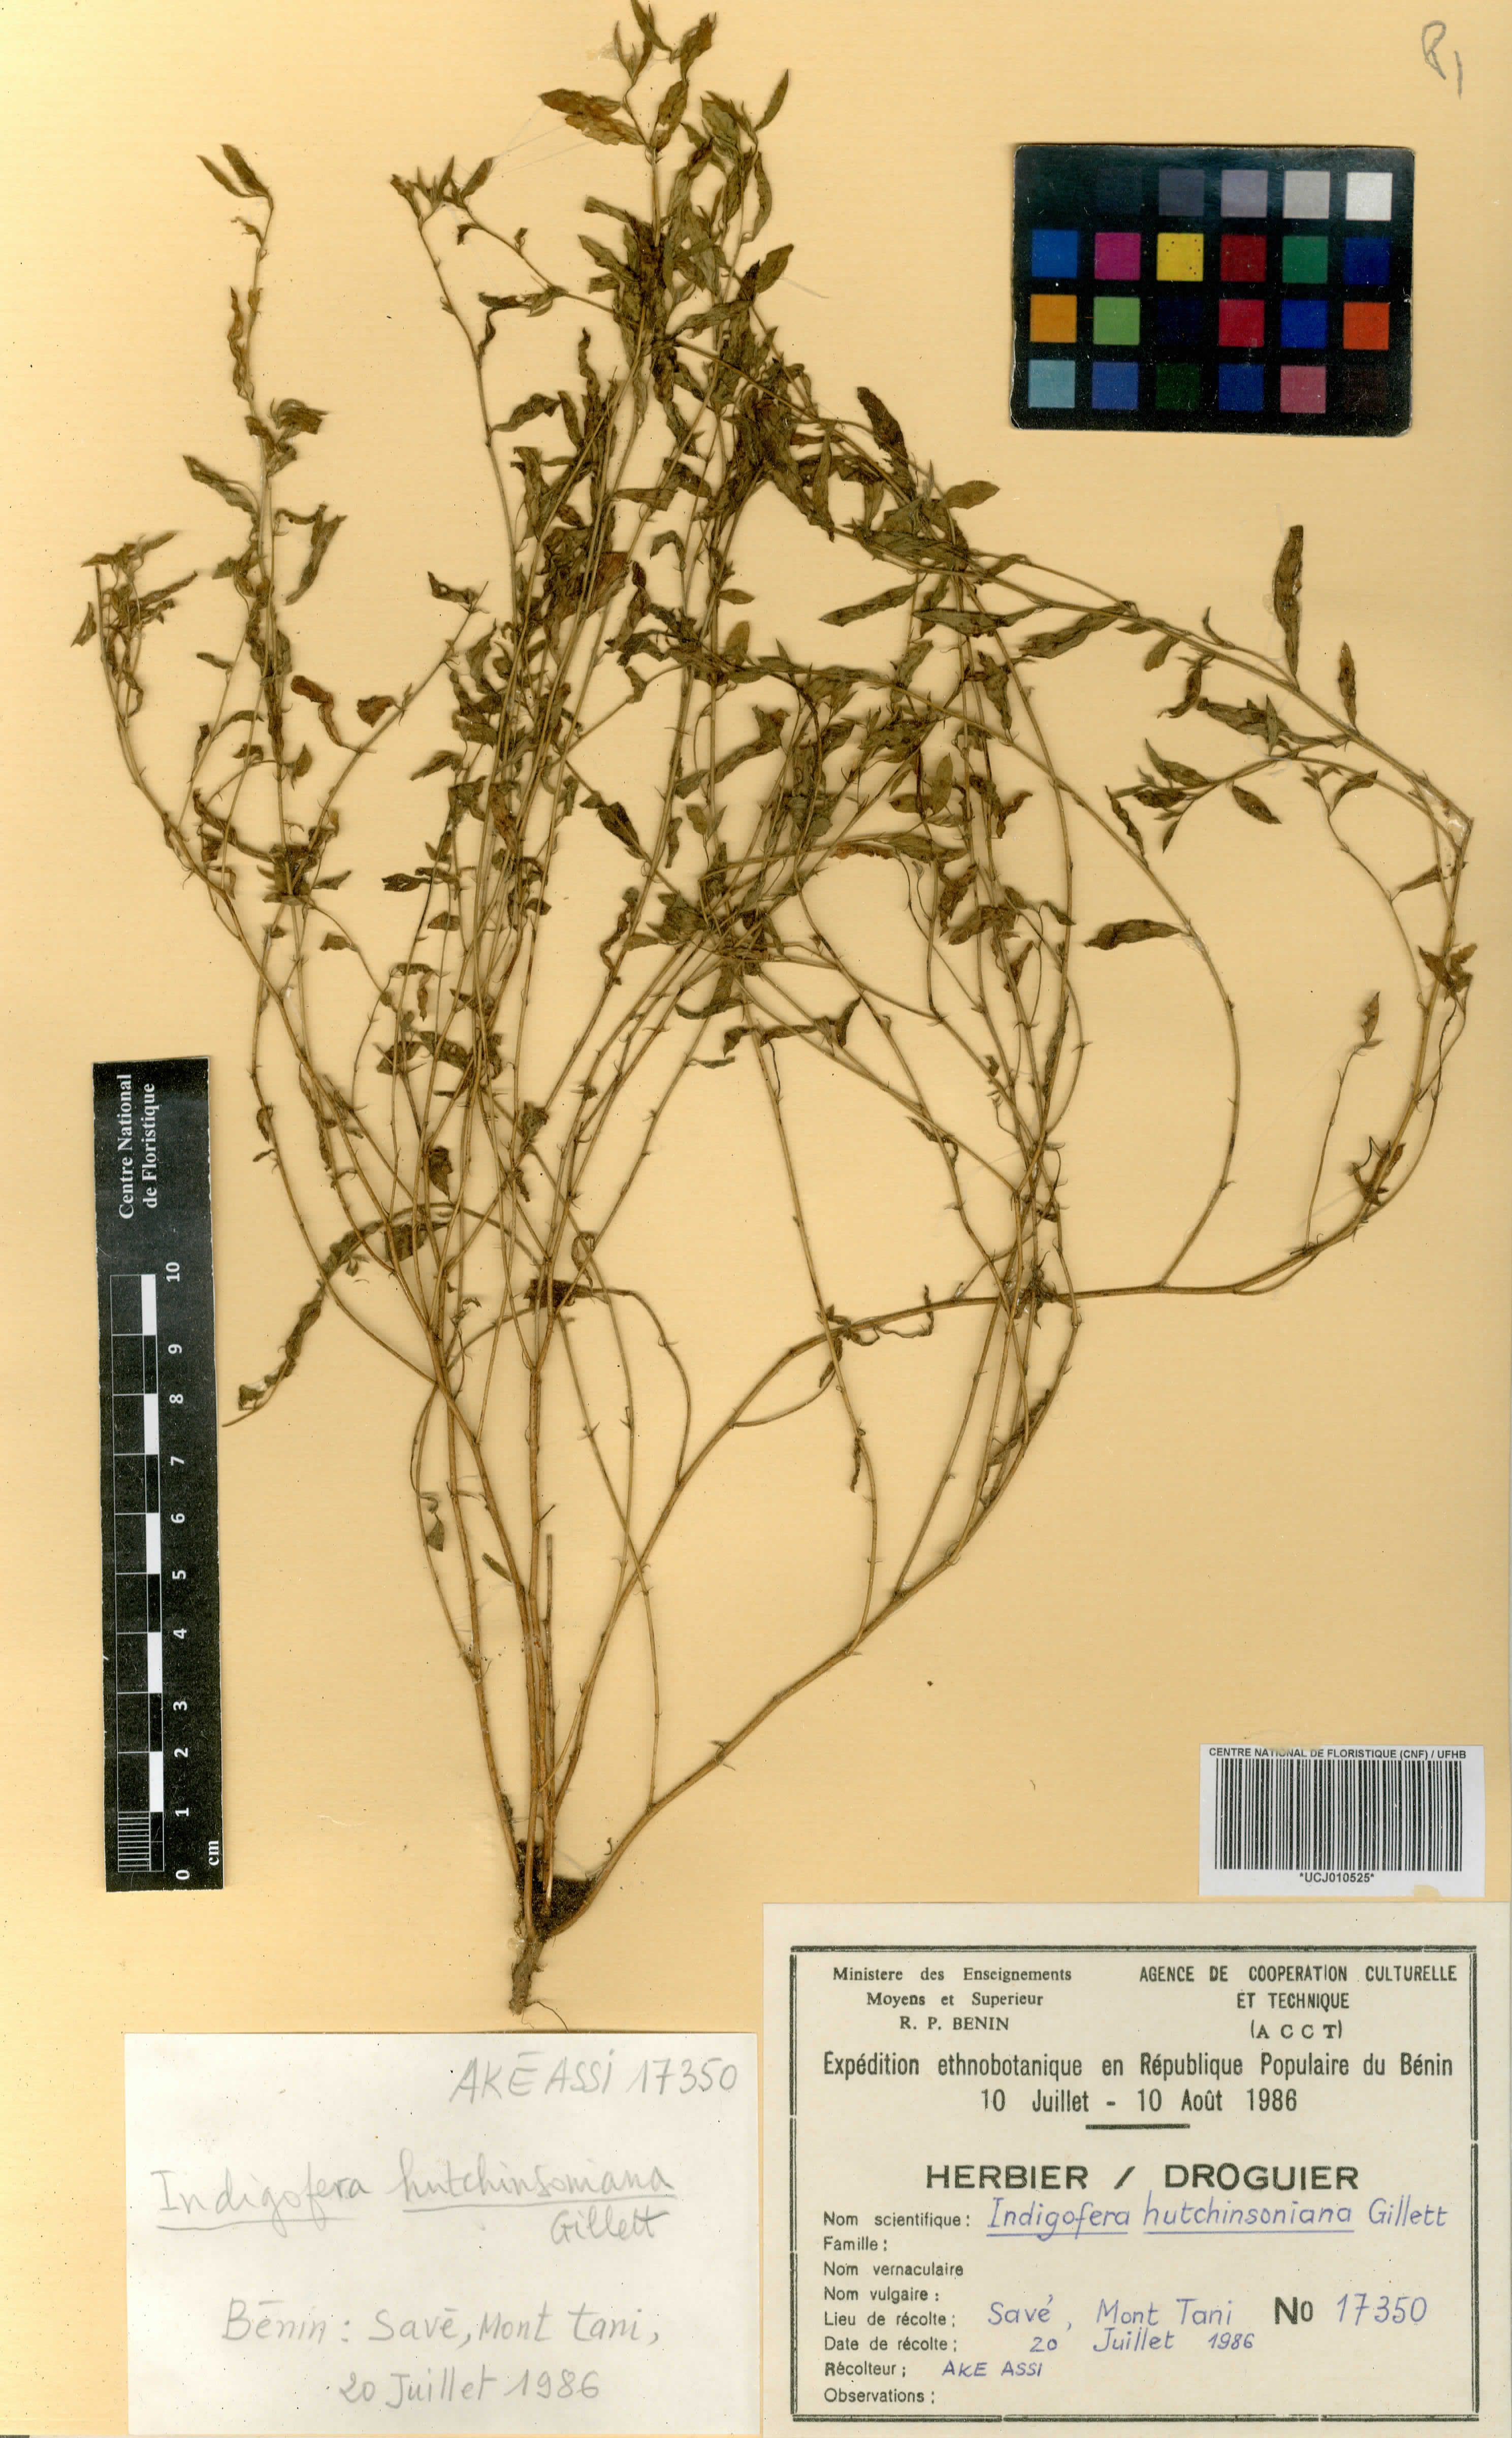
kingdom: Plantae
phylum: Tracheophyta
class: Magnoliopsida
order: Fabales
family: Fabaceae
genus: Microcharis
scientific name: Microcharis tenella
